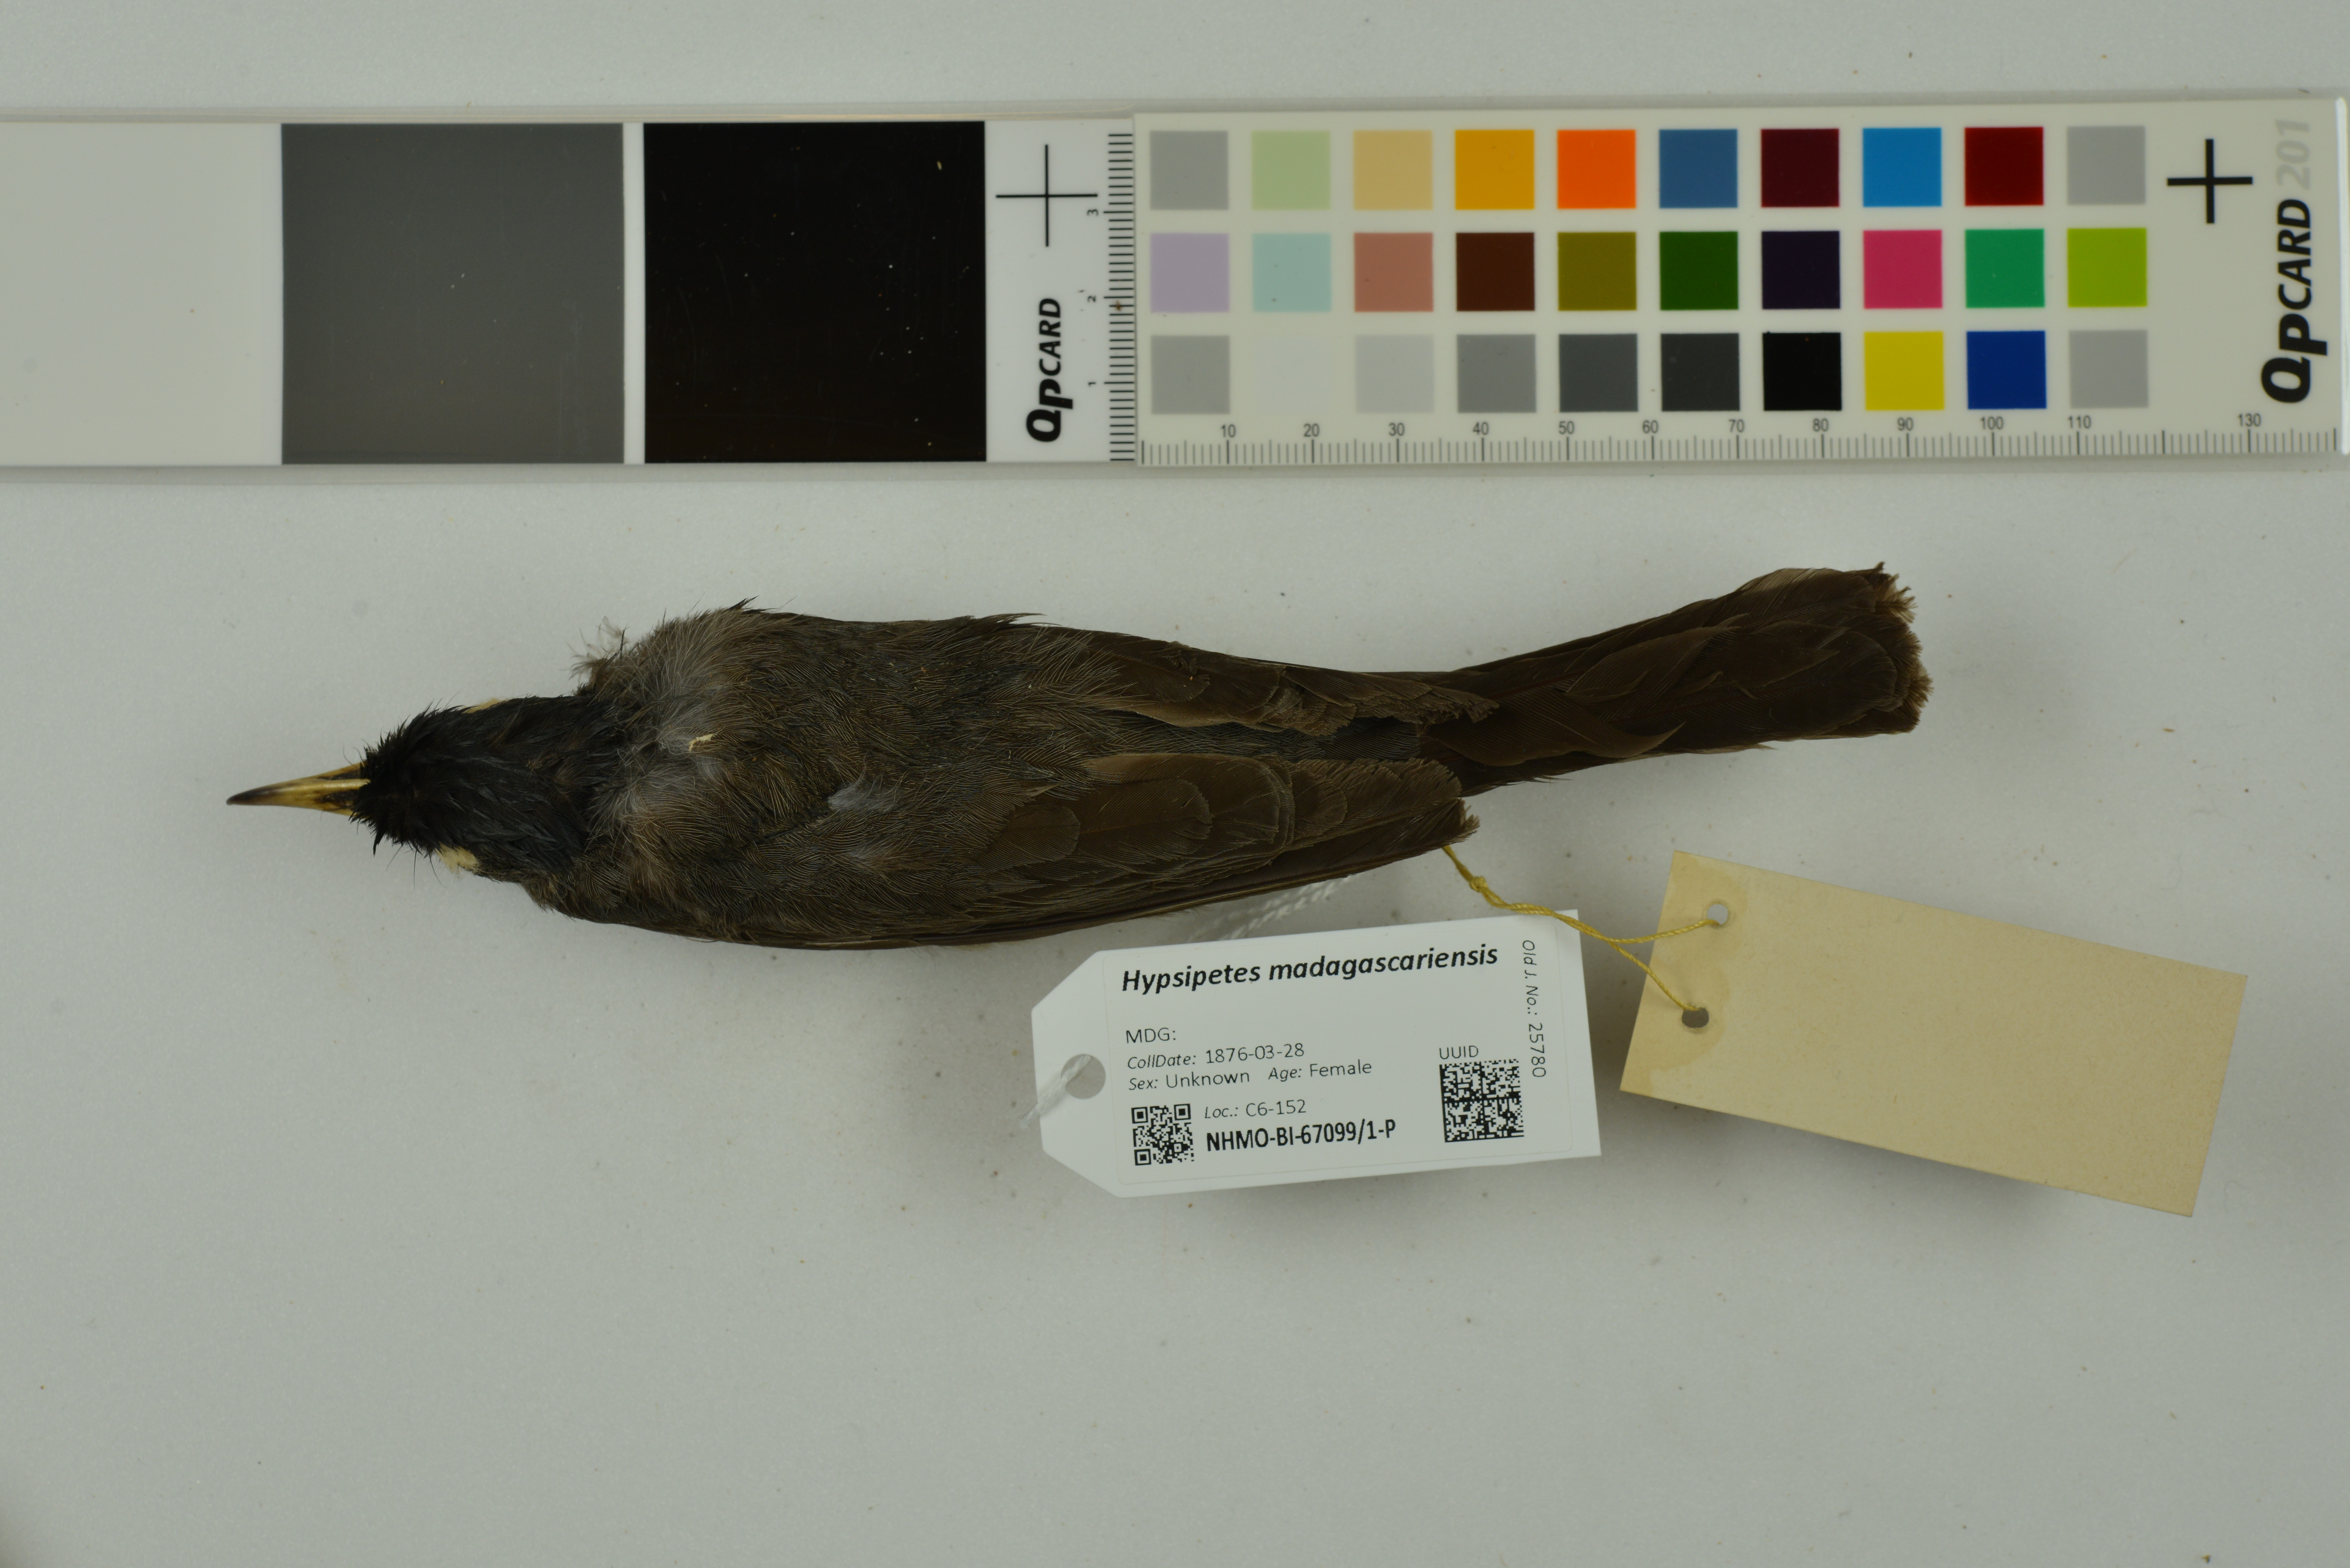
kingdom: Animalia
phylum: Chordata
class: Aves
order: Passeriformes
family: Pycnonotidae
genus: Hypsipetes
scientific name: Hypsipetes madagascariensis
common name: Malagasy bulbul
